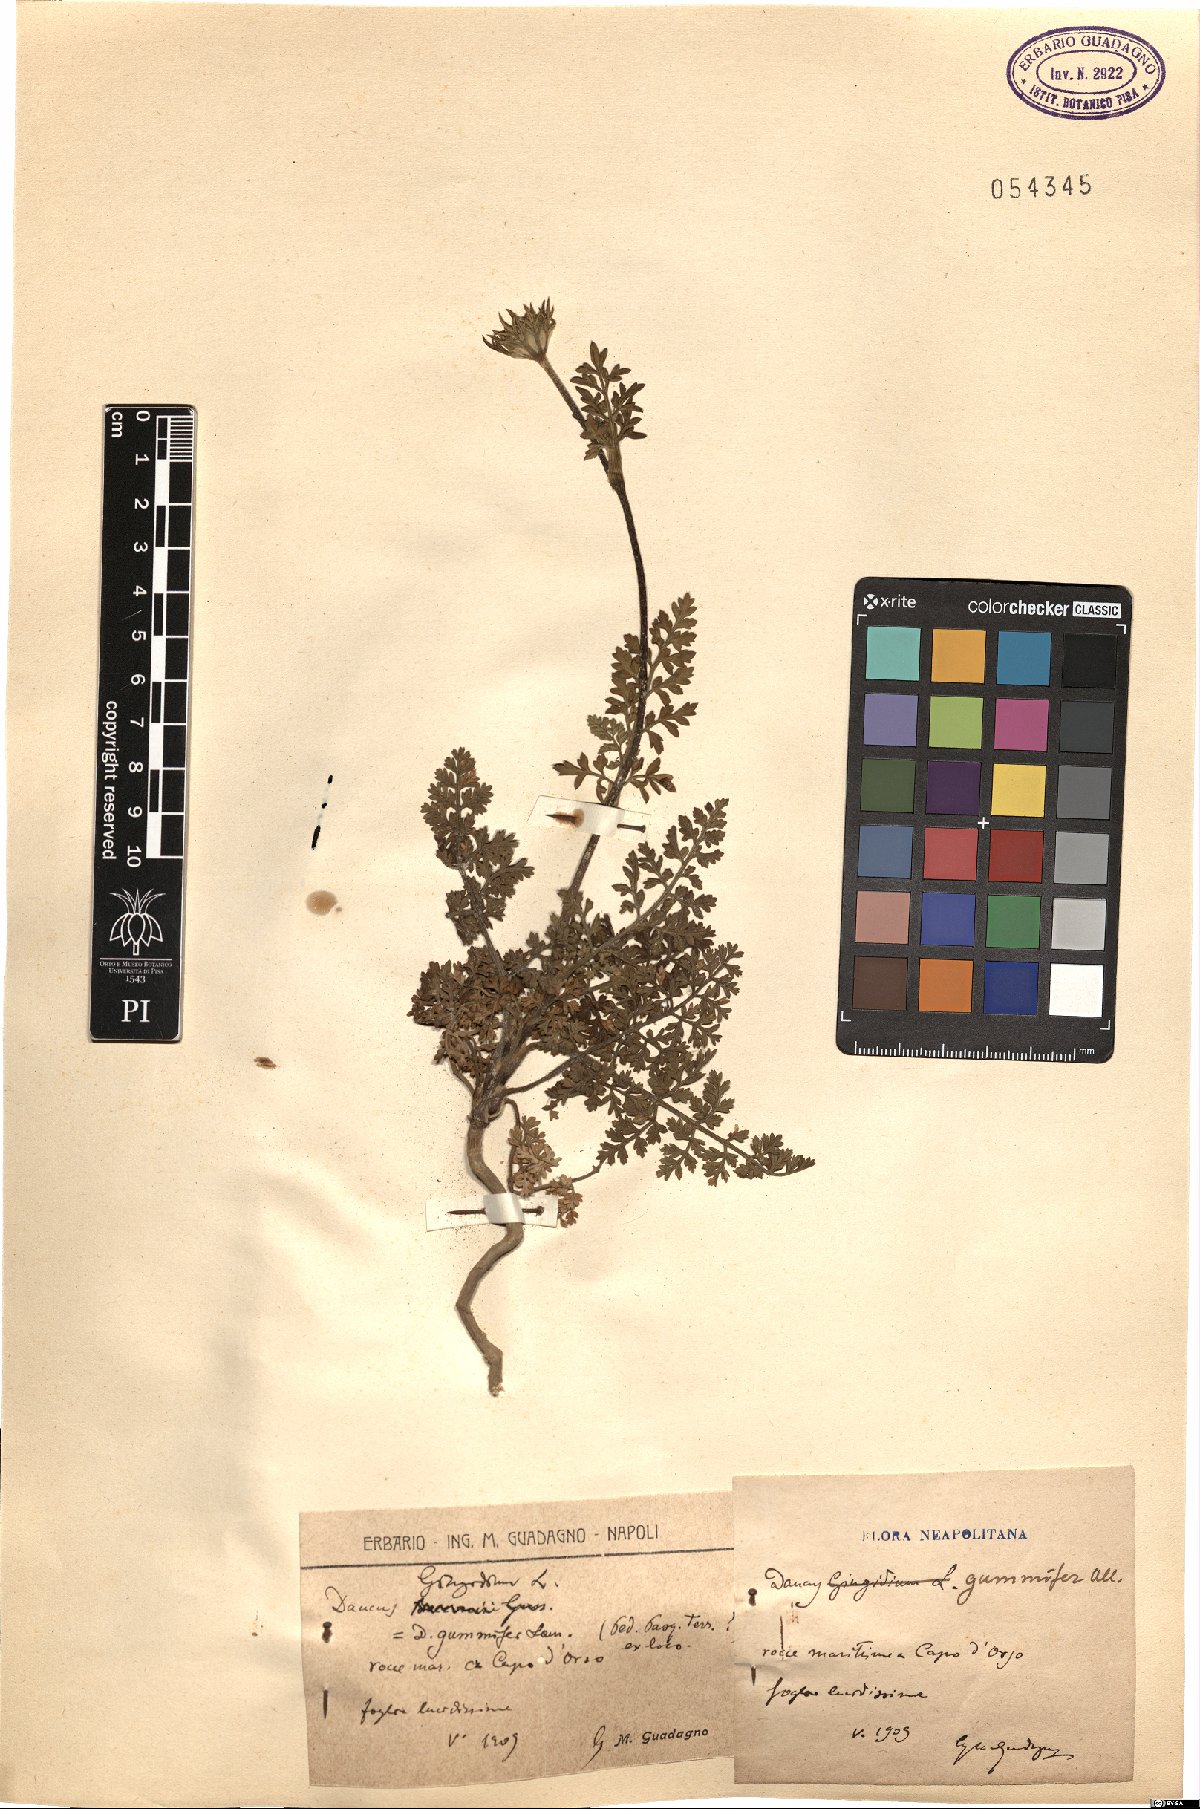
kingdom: Plantae
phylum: Tracheophyta
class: Magnoliopsida
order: Apiales
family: Apiaceae
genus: Daucus
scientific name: Daucus carota
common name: Wild carrot
